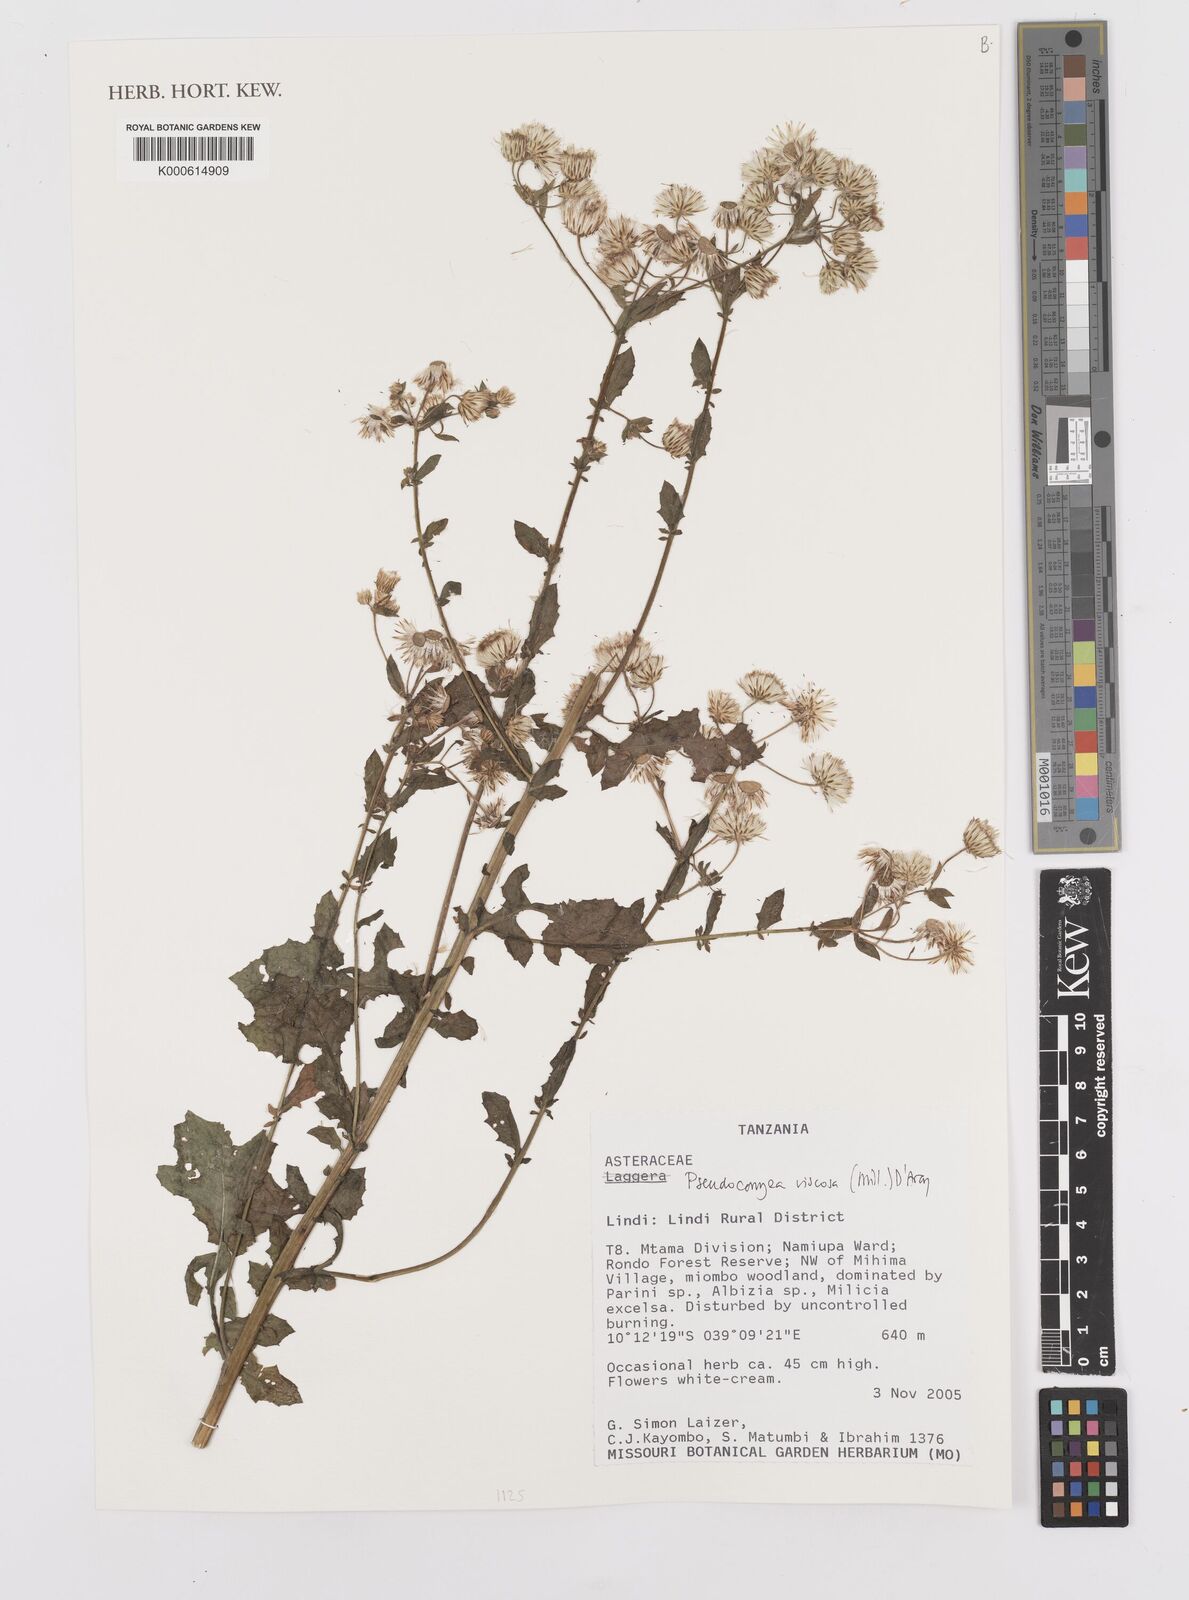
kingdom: Plantae
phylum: Tracheophyta
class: Magnoliopsida
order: Asterales
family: Asteraceae
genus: Pseudoconyza
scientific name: Pseudoconyza viscosa
